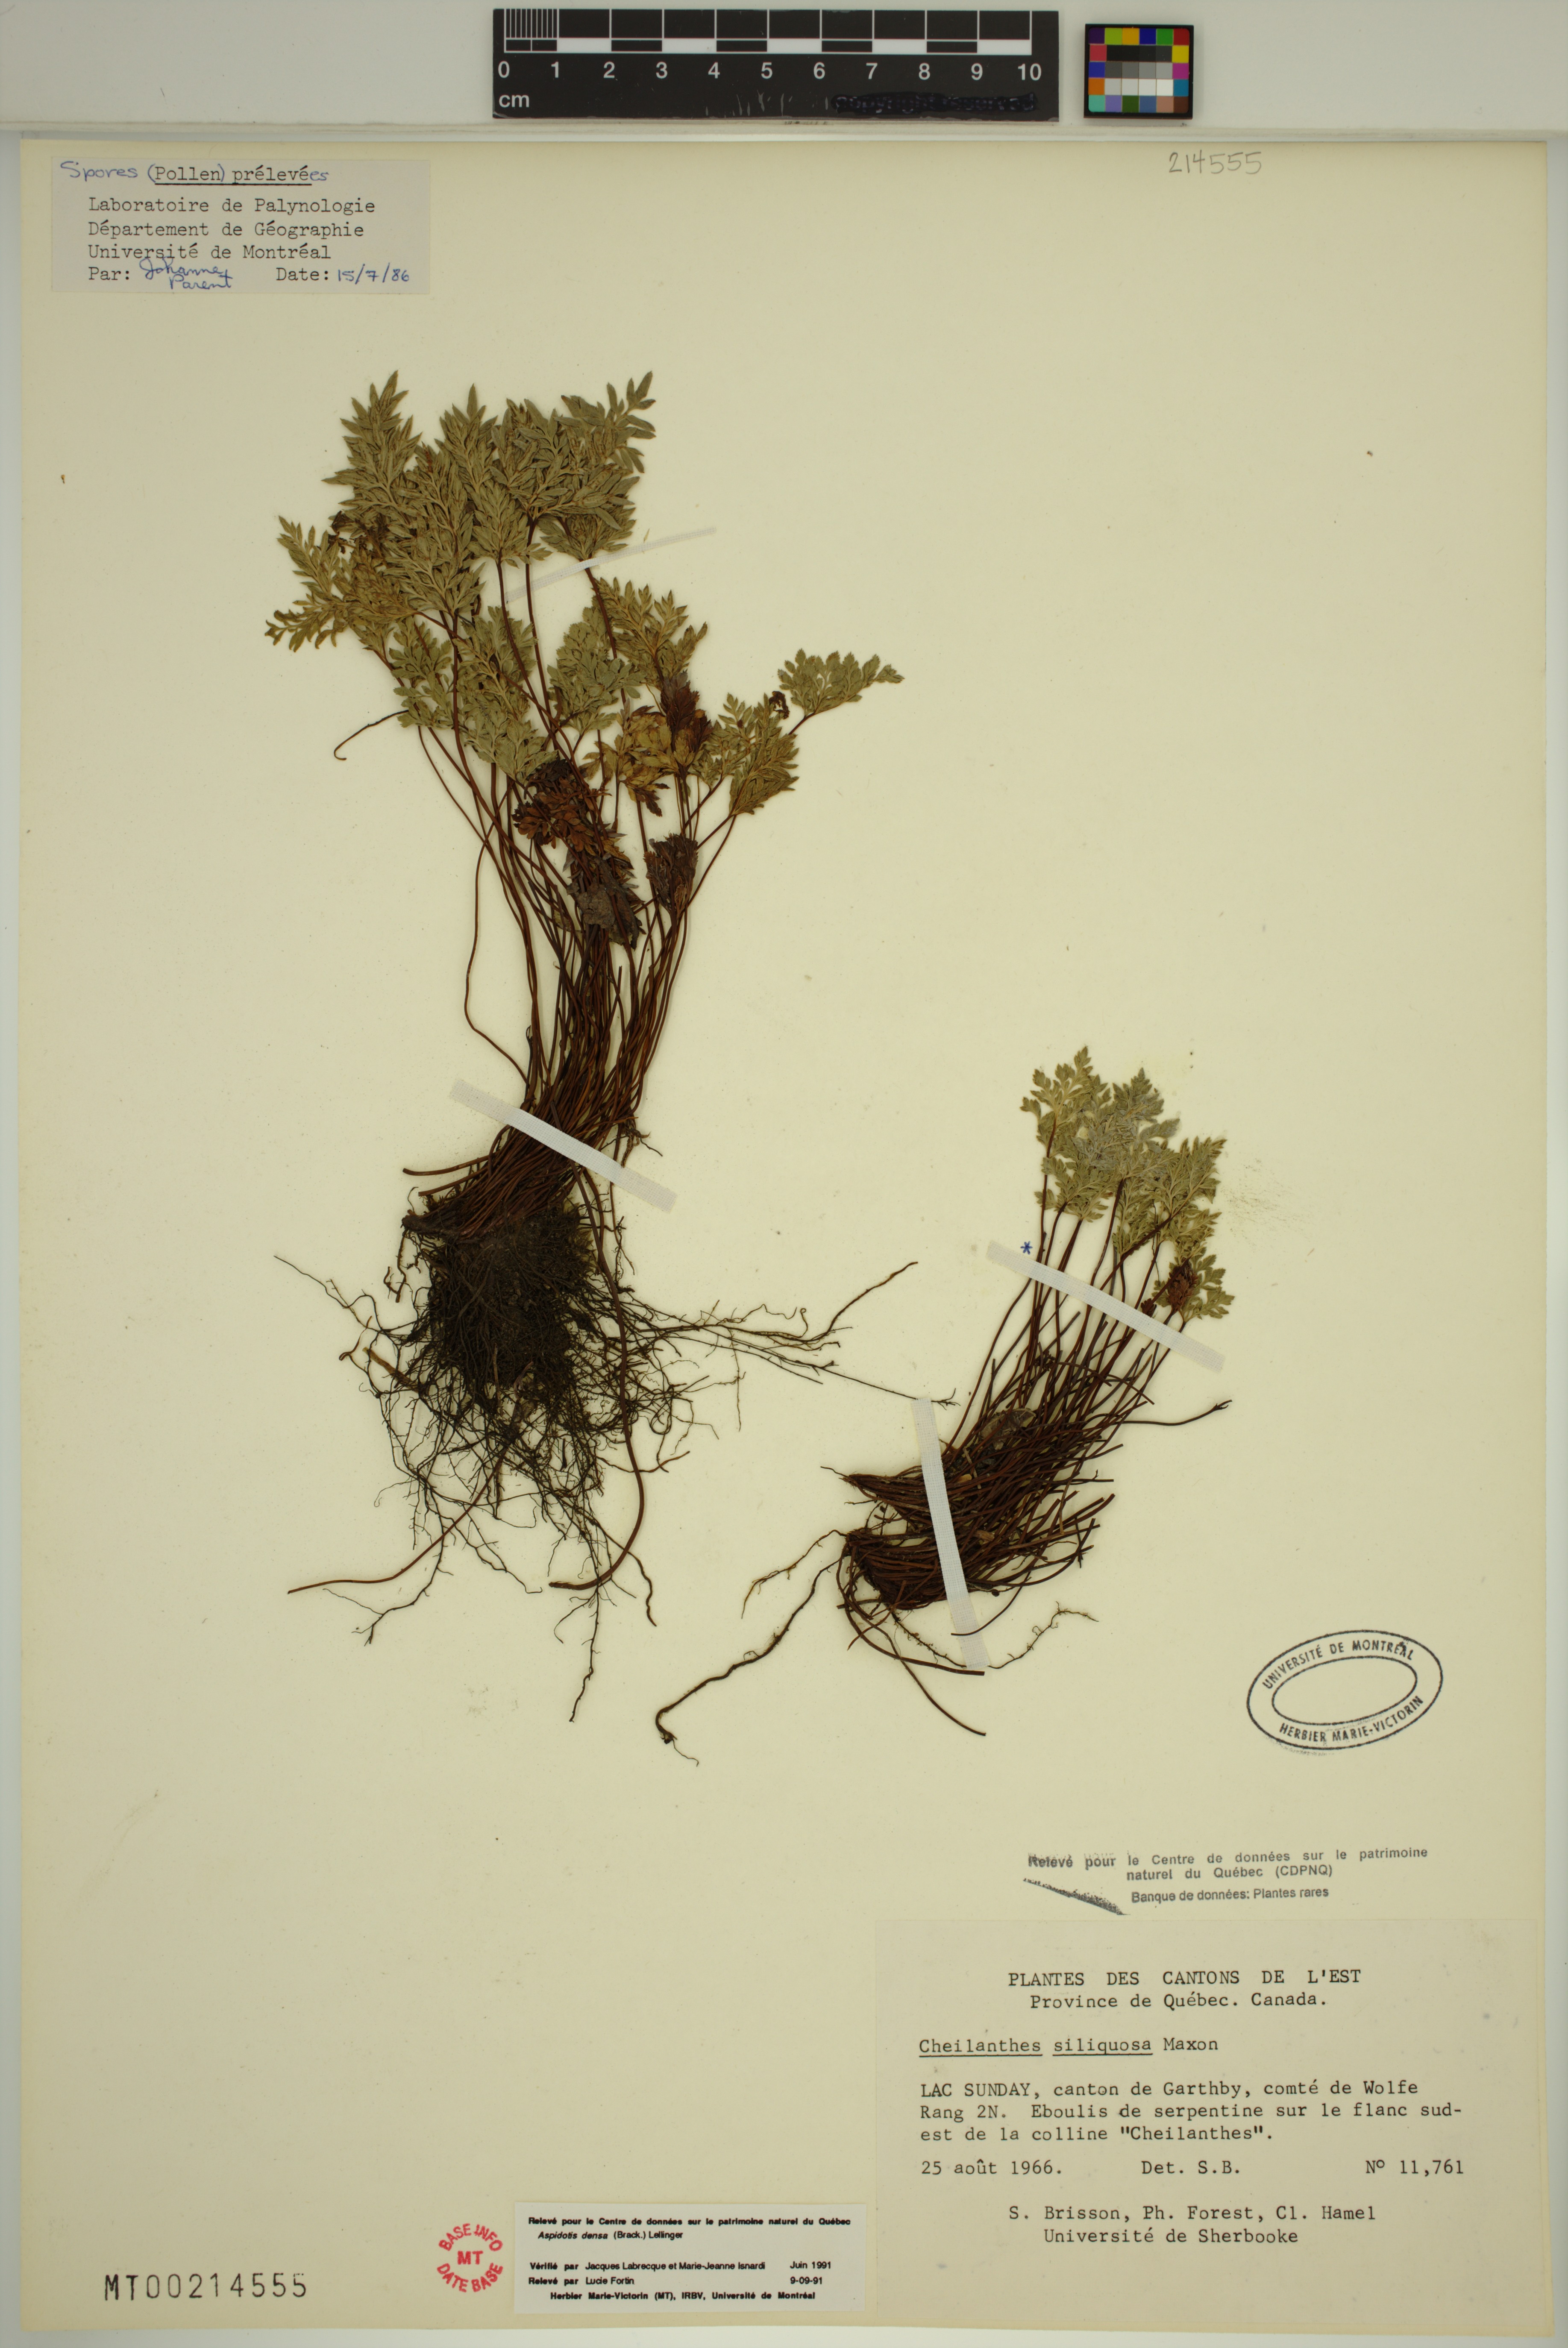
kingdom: Plantae
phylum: Tracheophyta
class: Polypodiopsida
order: Polypodiales
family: Pteridaceae
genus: Aspidotis
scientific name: Aspidotis densa
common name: Indian's dream
